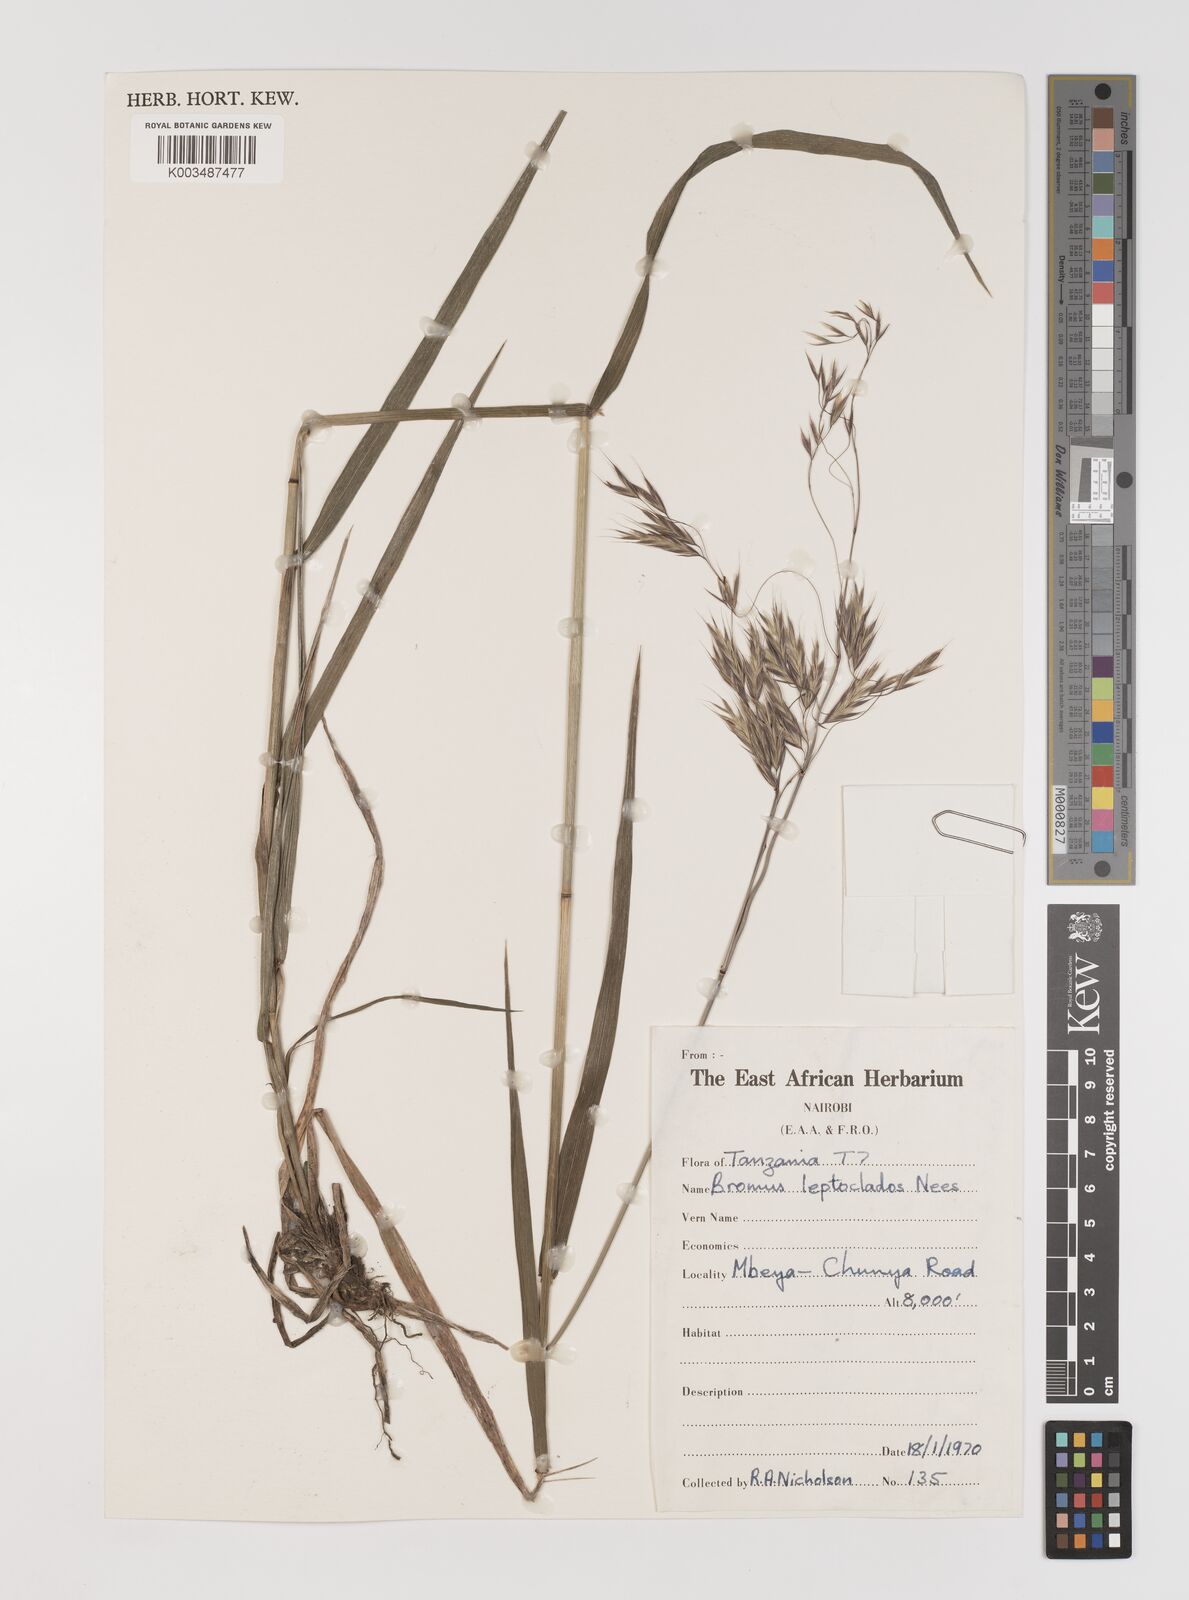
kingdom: Plantae
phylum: Tracheophyta
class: Liliopsida
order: Poales
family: Poaceae
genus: Bromus
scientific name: Bromus leptoclados
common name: Mountain bromegrass
